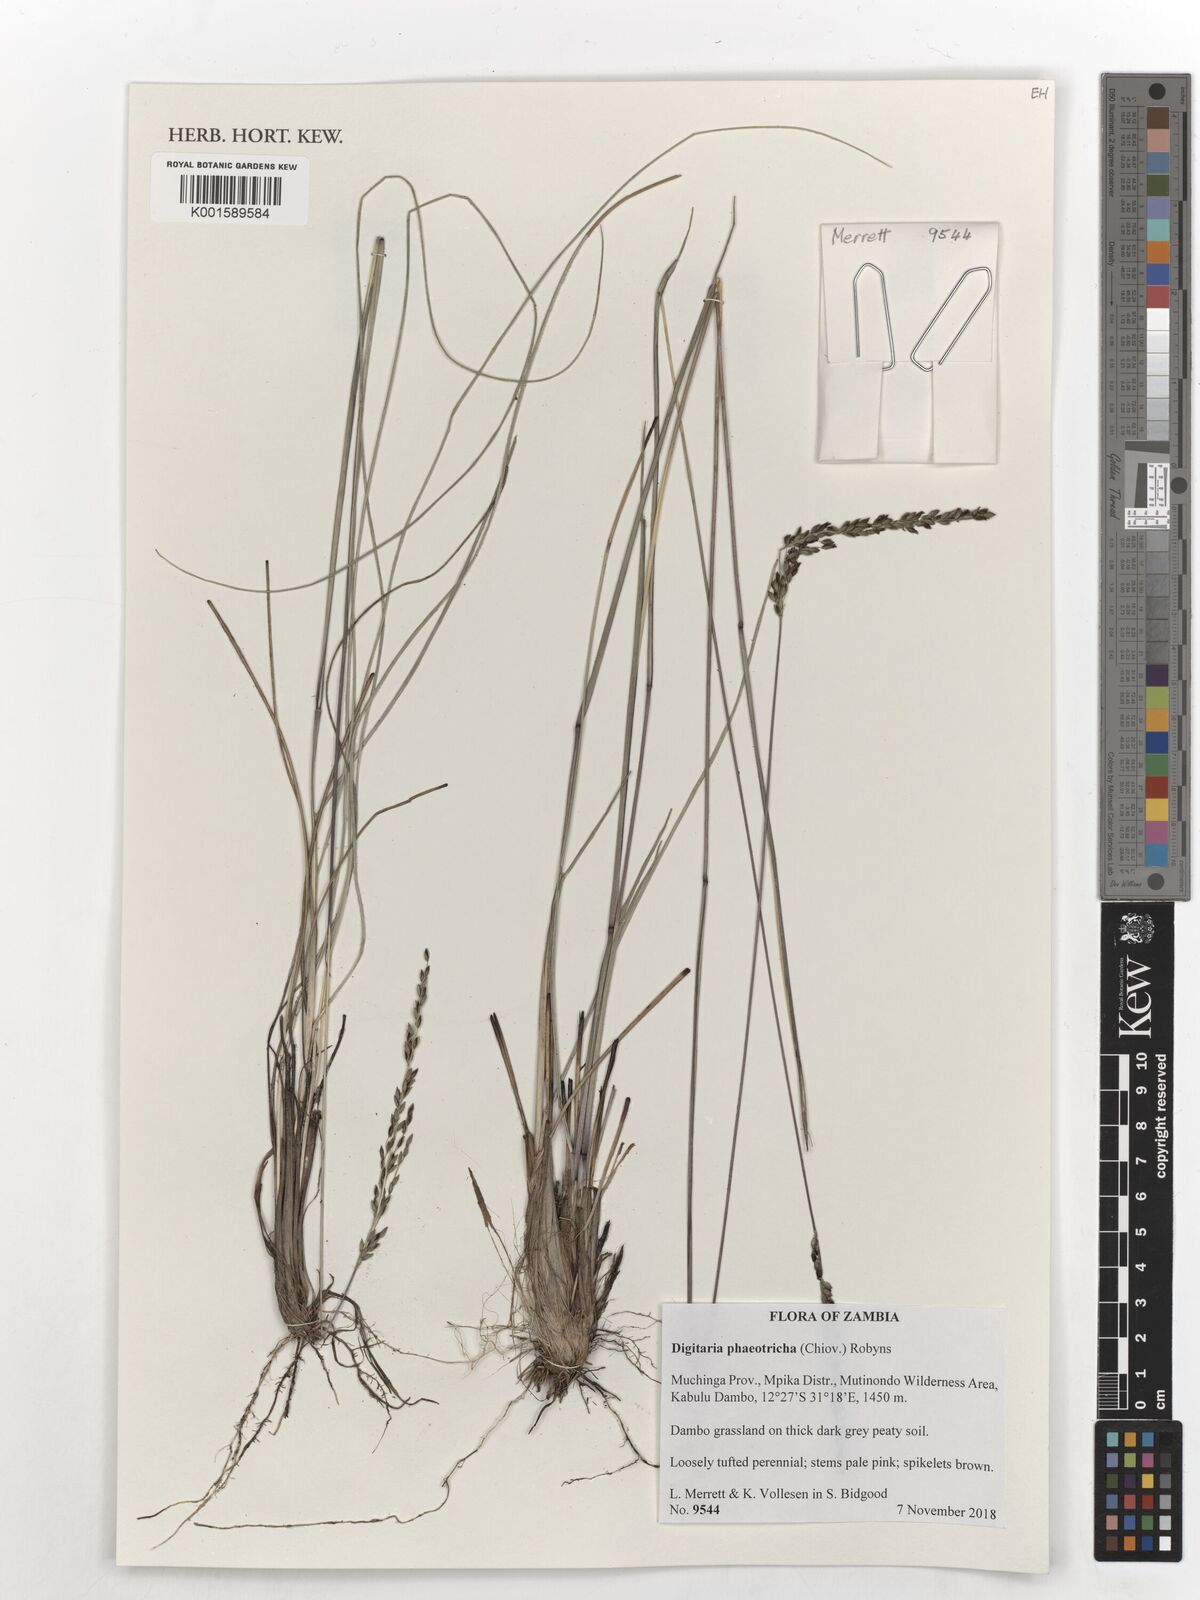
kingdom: Plantae
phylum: Tracheophyta
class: Liliopsida
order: Poales
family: Poaceae
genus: Digitaria
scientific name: Digitaria phaeotricha
